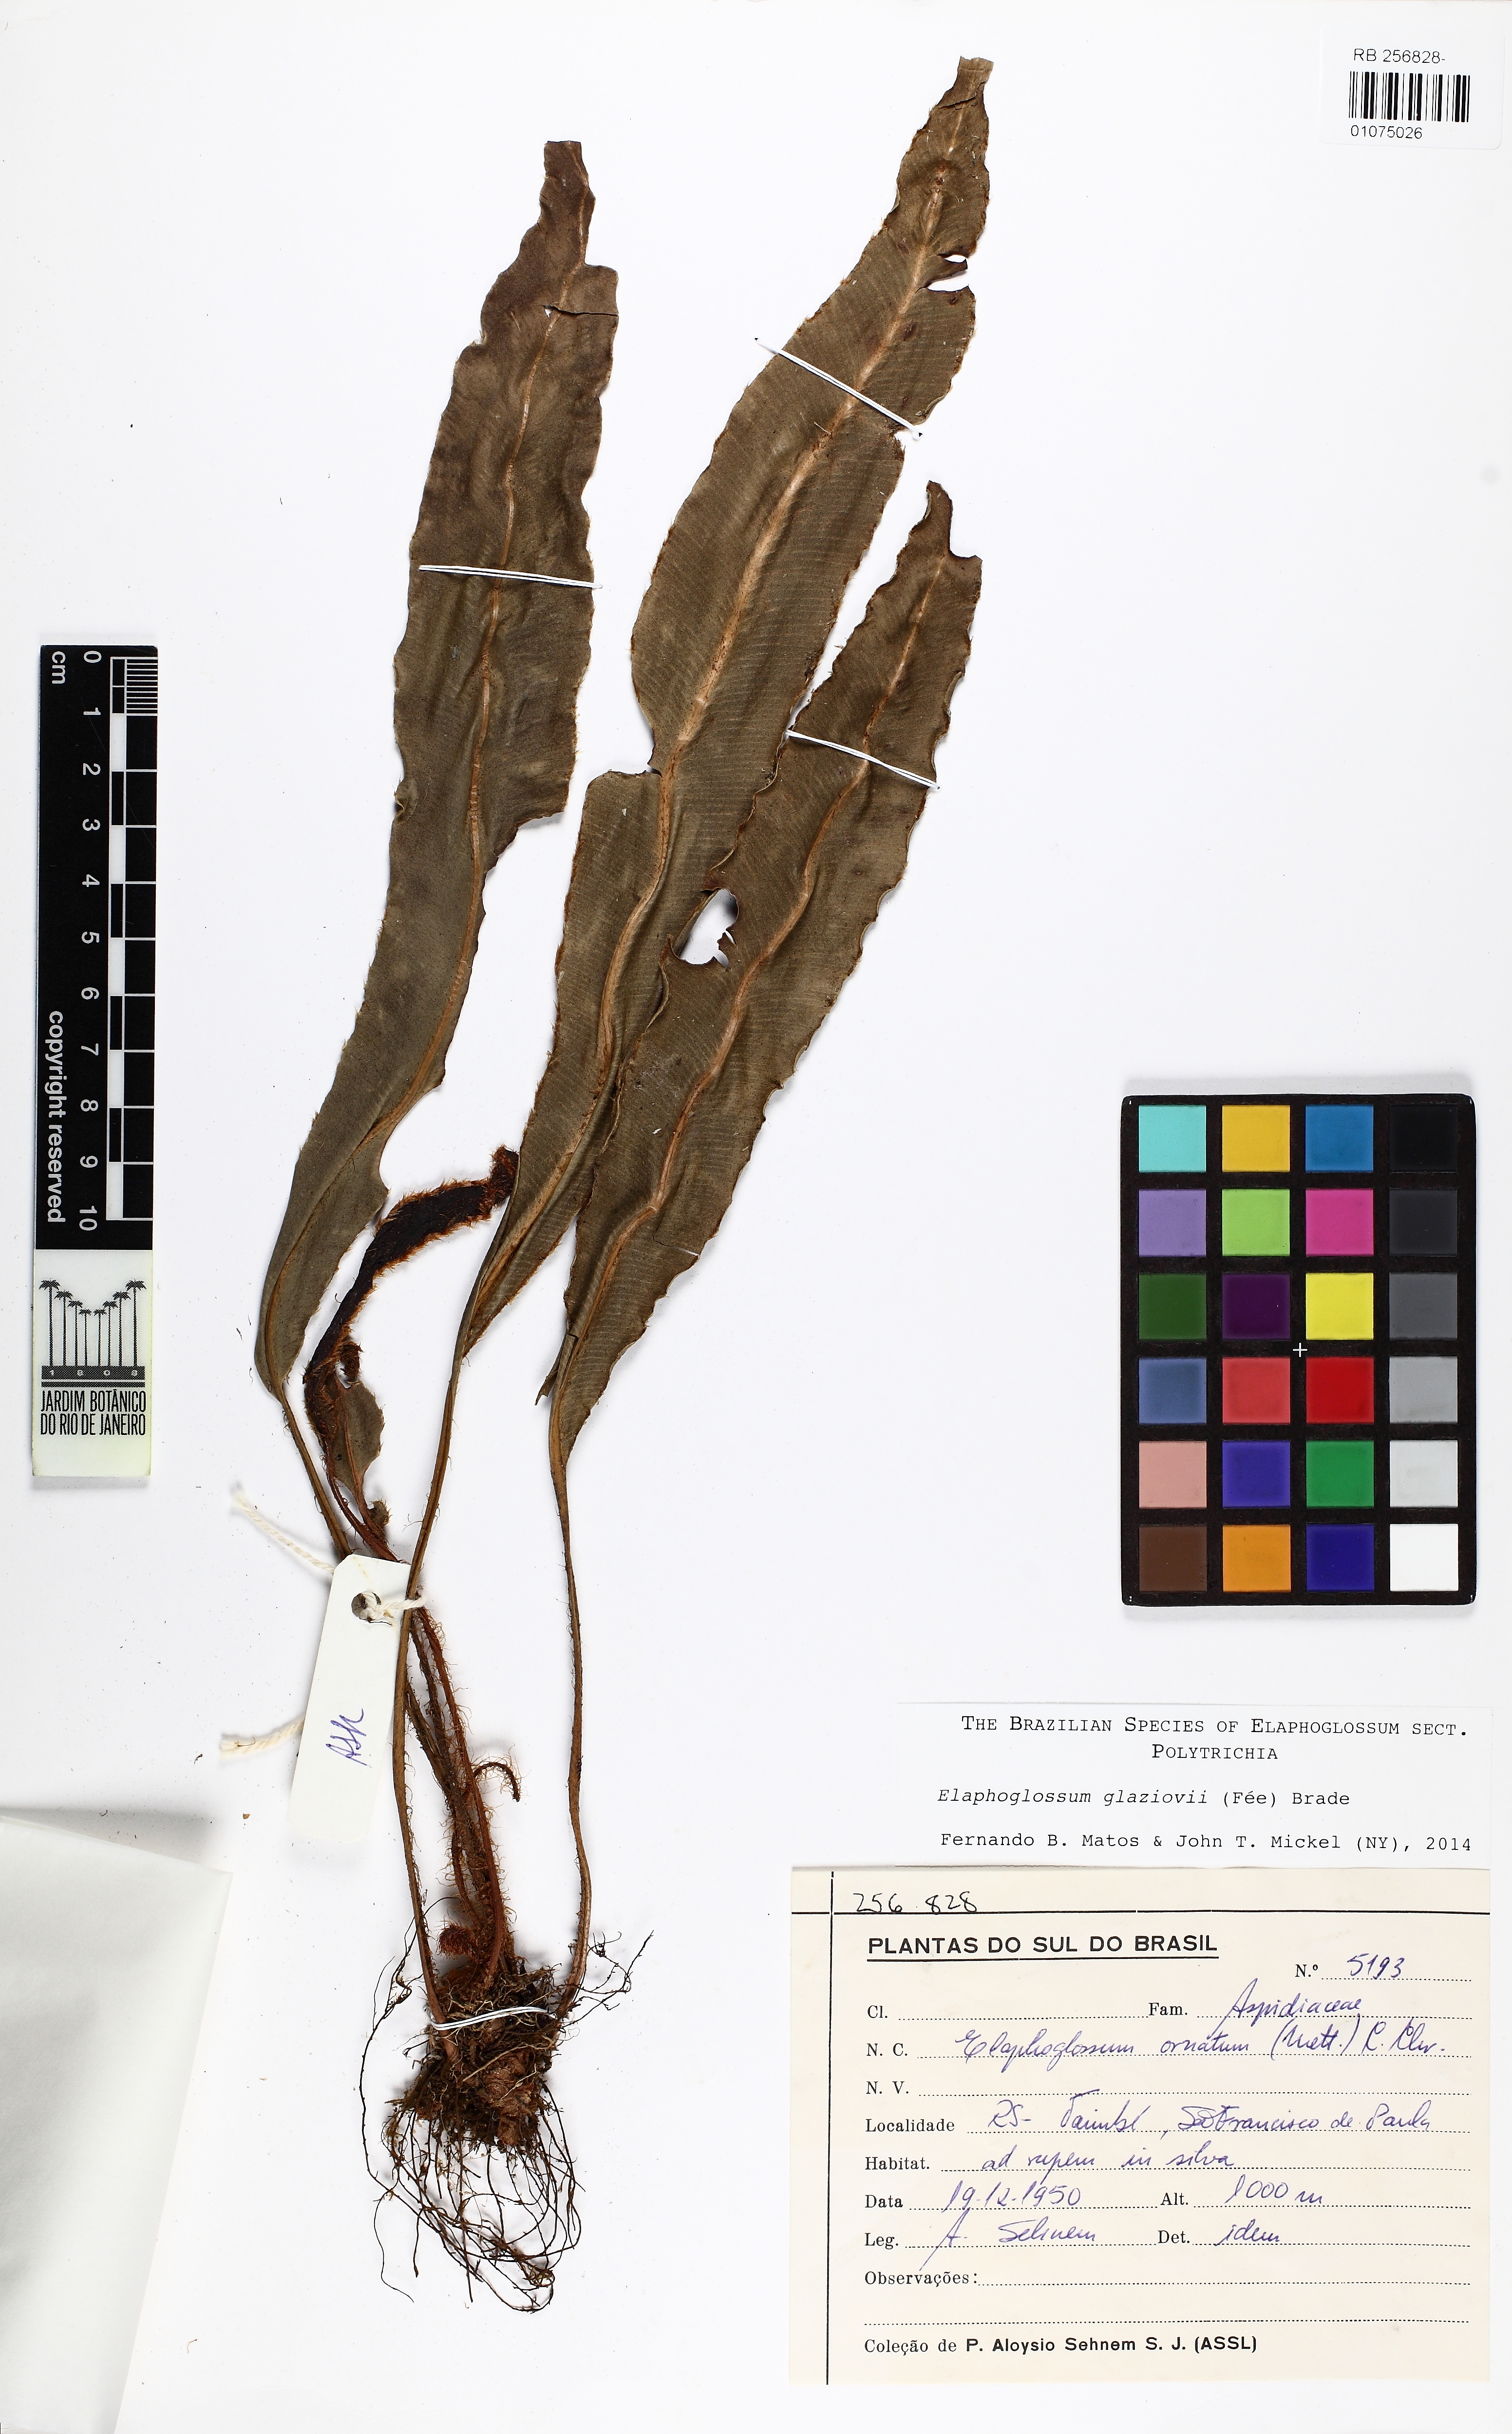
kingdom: Plantae
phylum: Tracheophyta
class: Polypodiopsida
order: Polypodiales
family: Dryopteridaceae
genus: Elaphoglossum
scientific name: Elaphoglossum glaziovii
